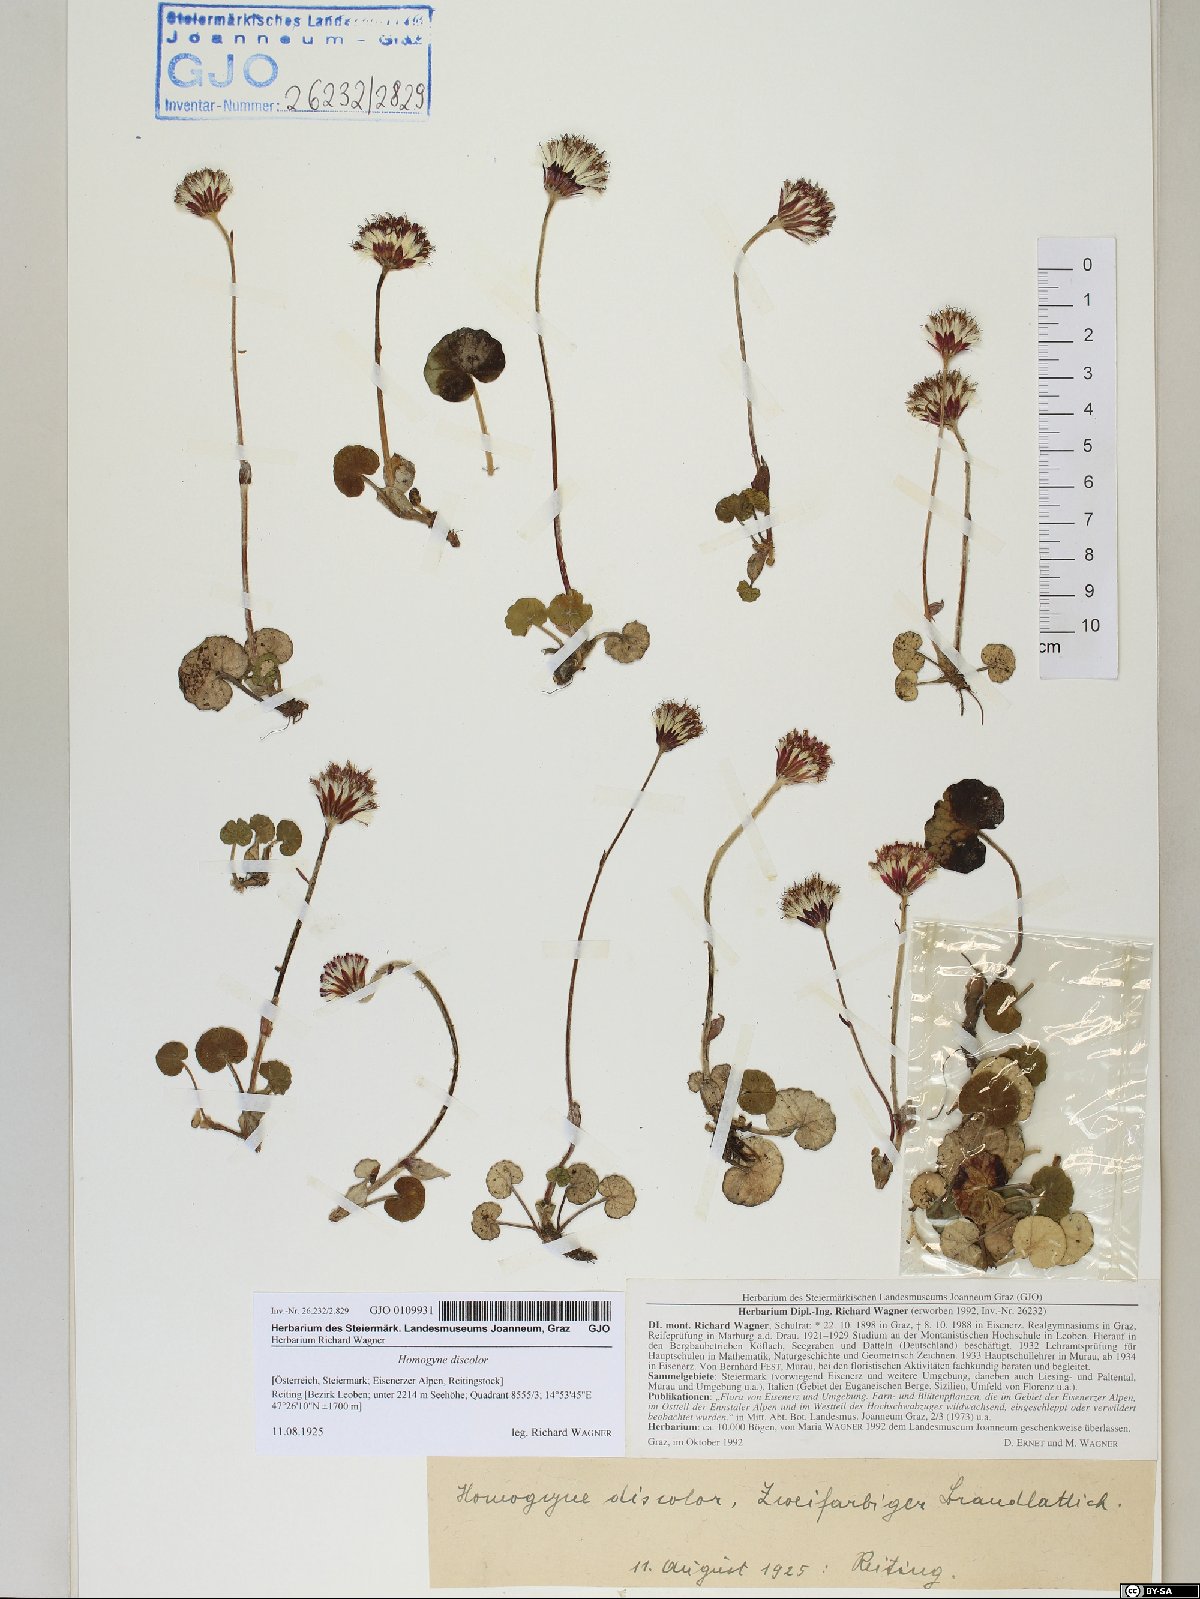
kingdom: Plantae
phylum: Tracheophyta
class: Magnoliopsida
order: Asterales
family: Asteraceae
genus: Homogyne
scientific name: Homogyne discolor
